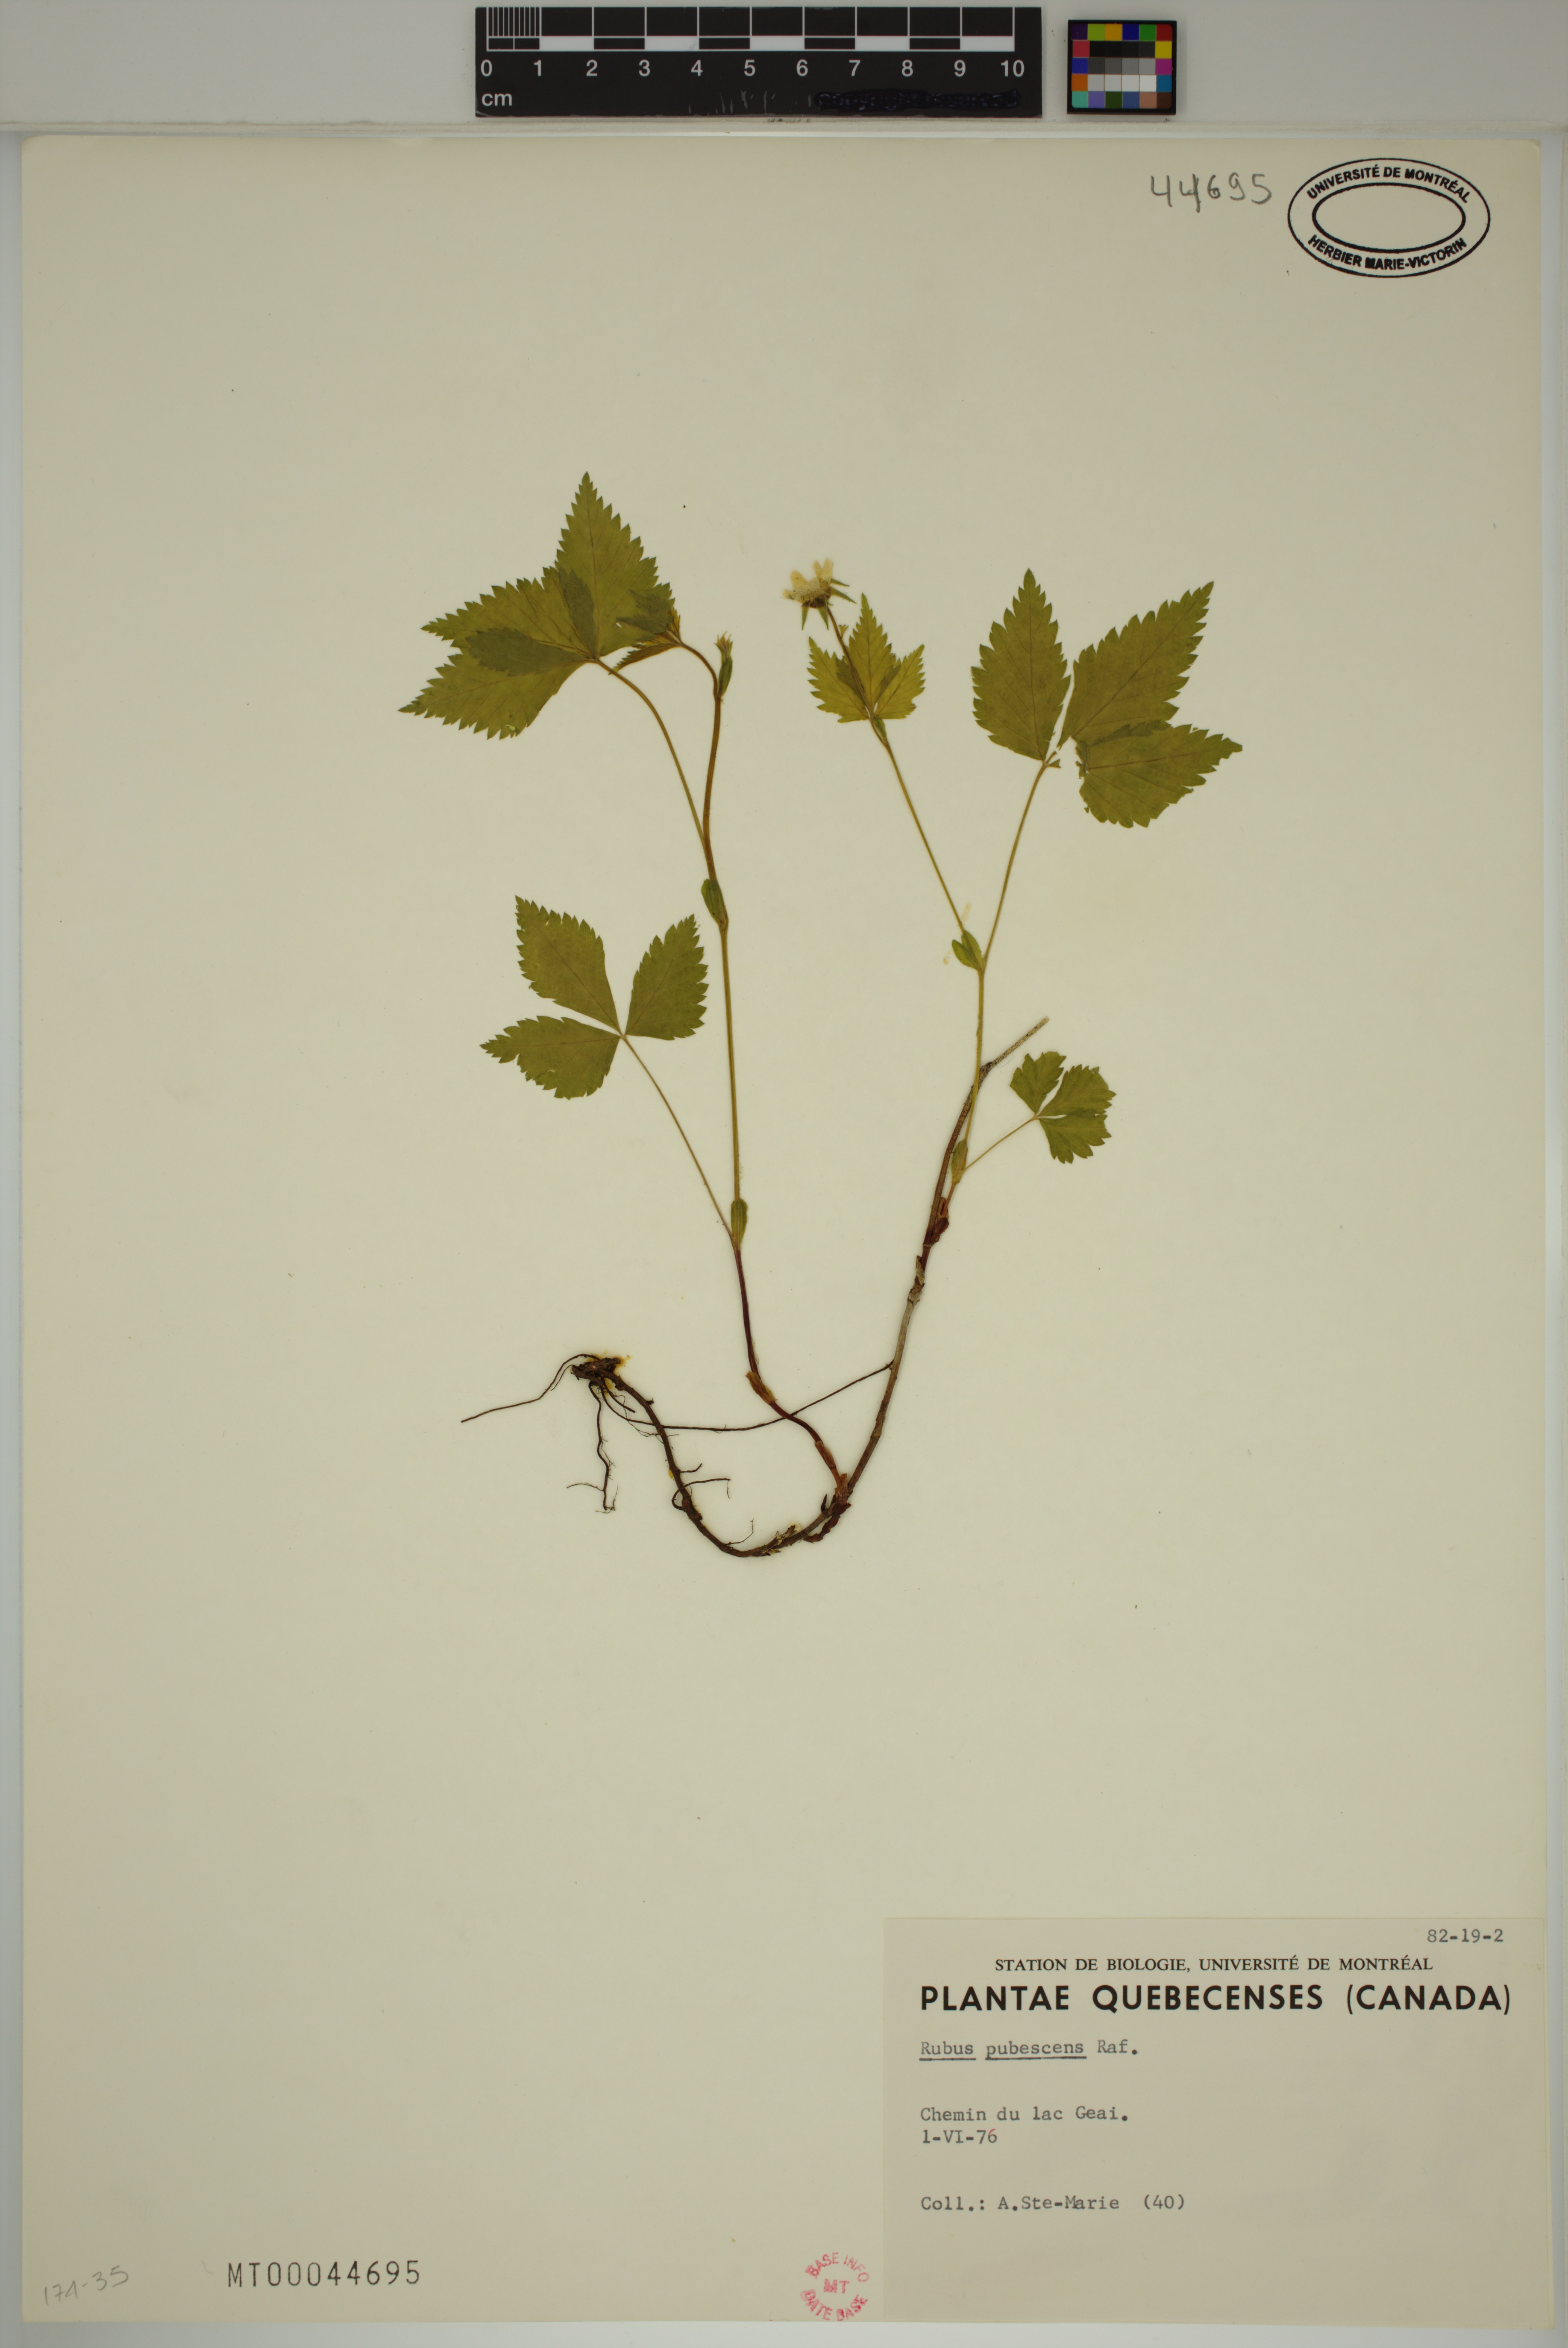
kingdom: Plantae
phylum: Tracheophyta
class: Magnoliopsida
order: Rosales
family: Rosaceae
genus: Rubus
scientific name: Rubus pubescens
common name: Dwarf raspberry
